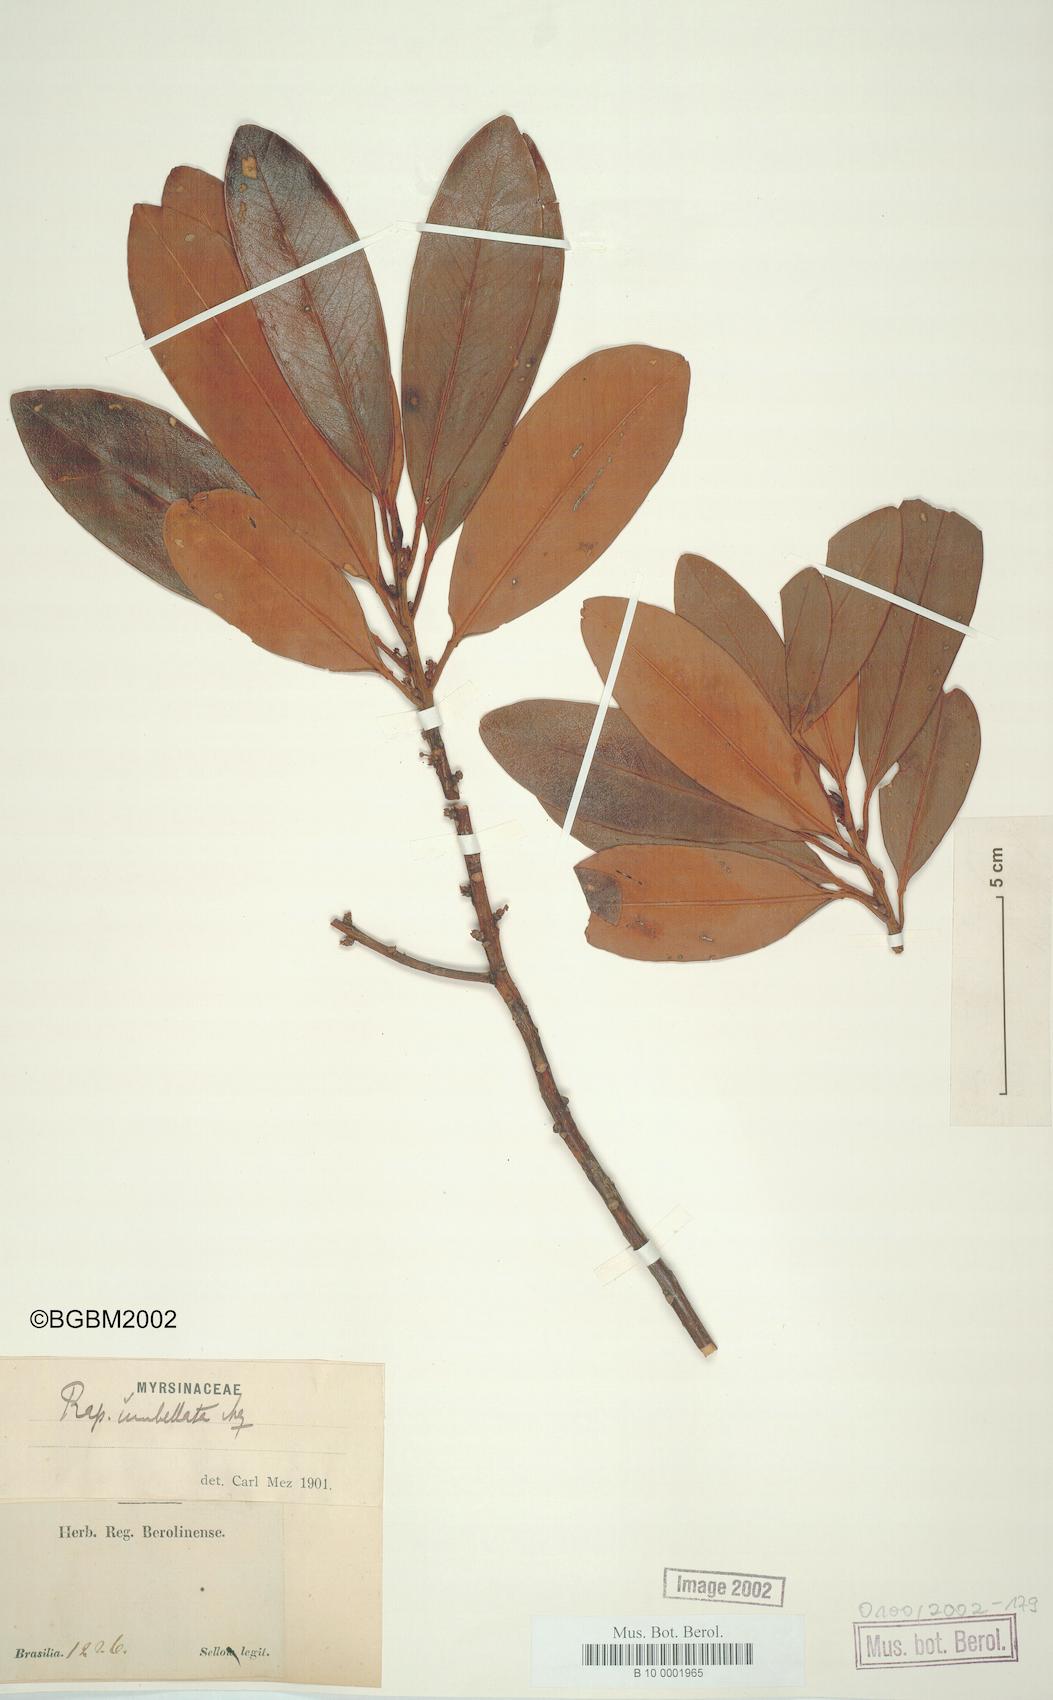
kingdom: Plantae
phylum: Tracheophyta
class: Magnoliopsida
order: Ericales
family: Primulaceae
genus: Myrsine
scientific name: Myrsine umbellata
